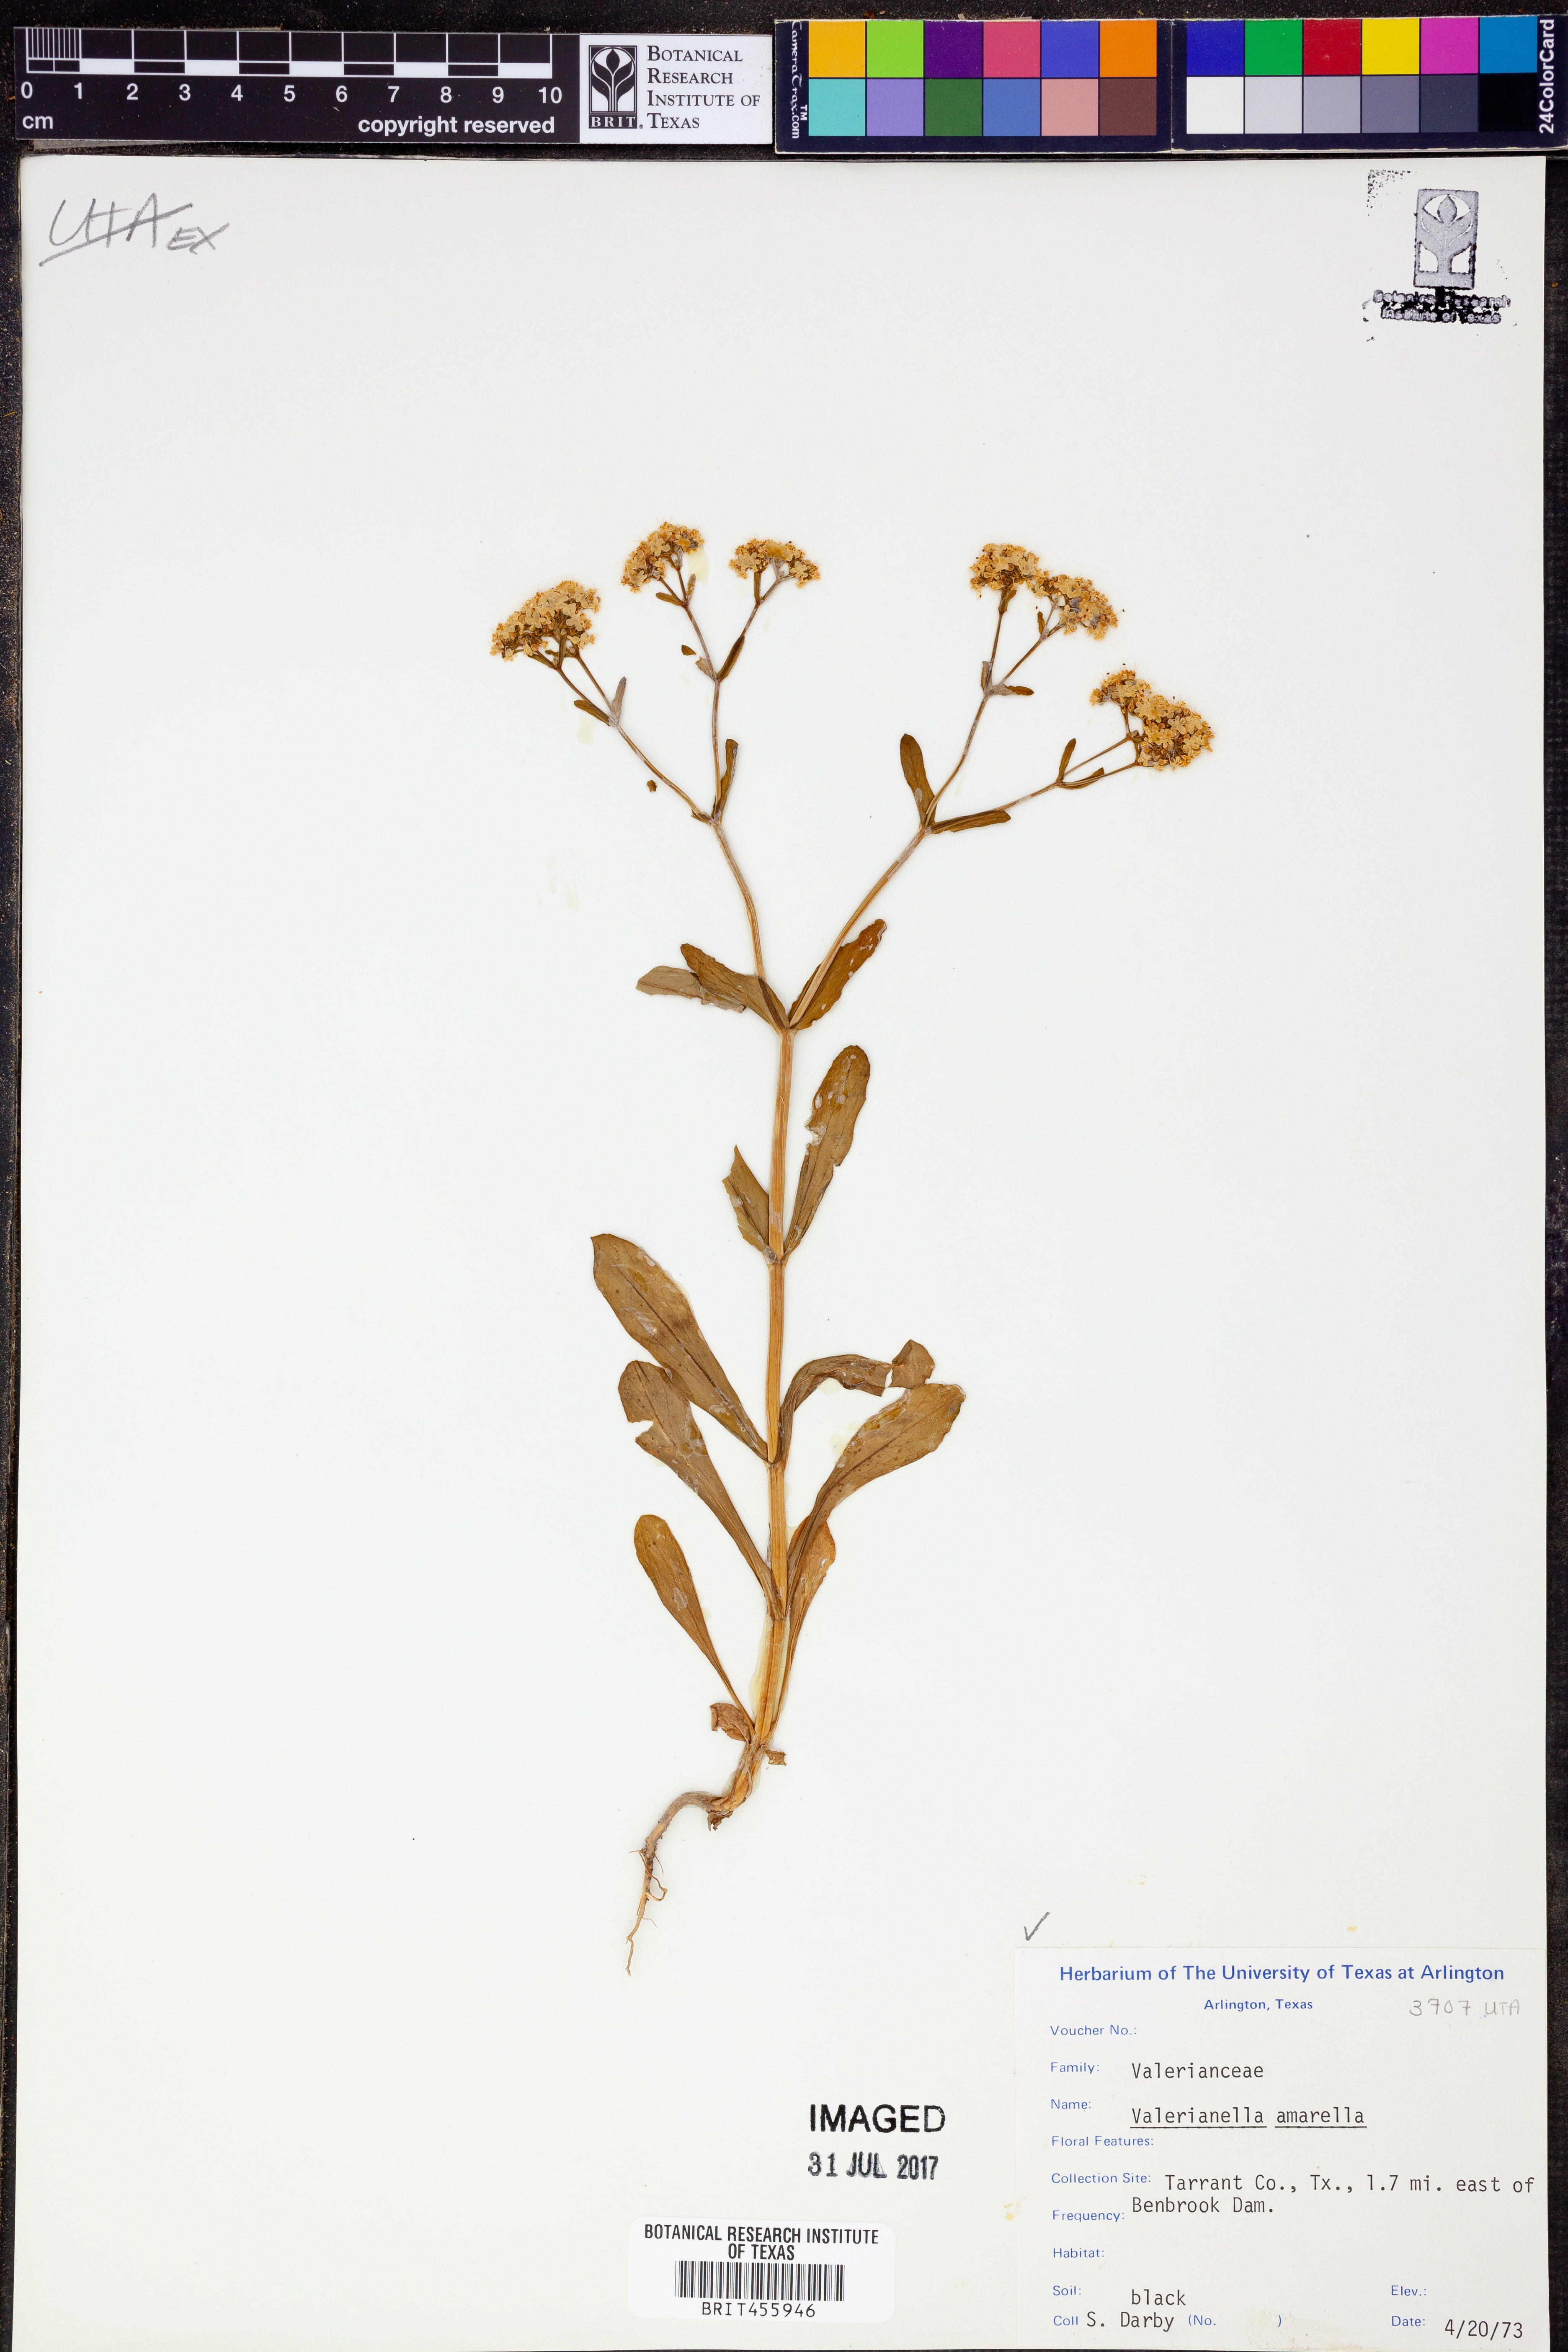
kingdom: Plantae
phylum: Tracheophyta
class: Magnoliopsida
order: Dipsacales
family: Caprifoliaceae
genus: Valerianella
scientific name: Valerianella amarella
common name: Hariy cornsalad
